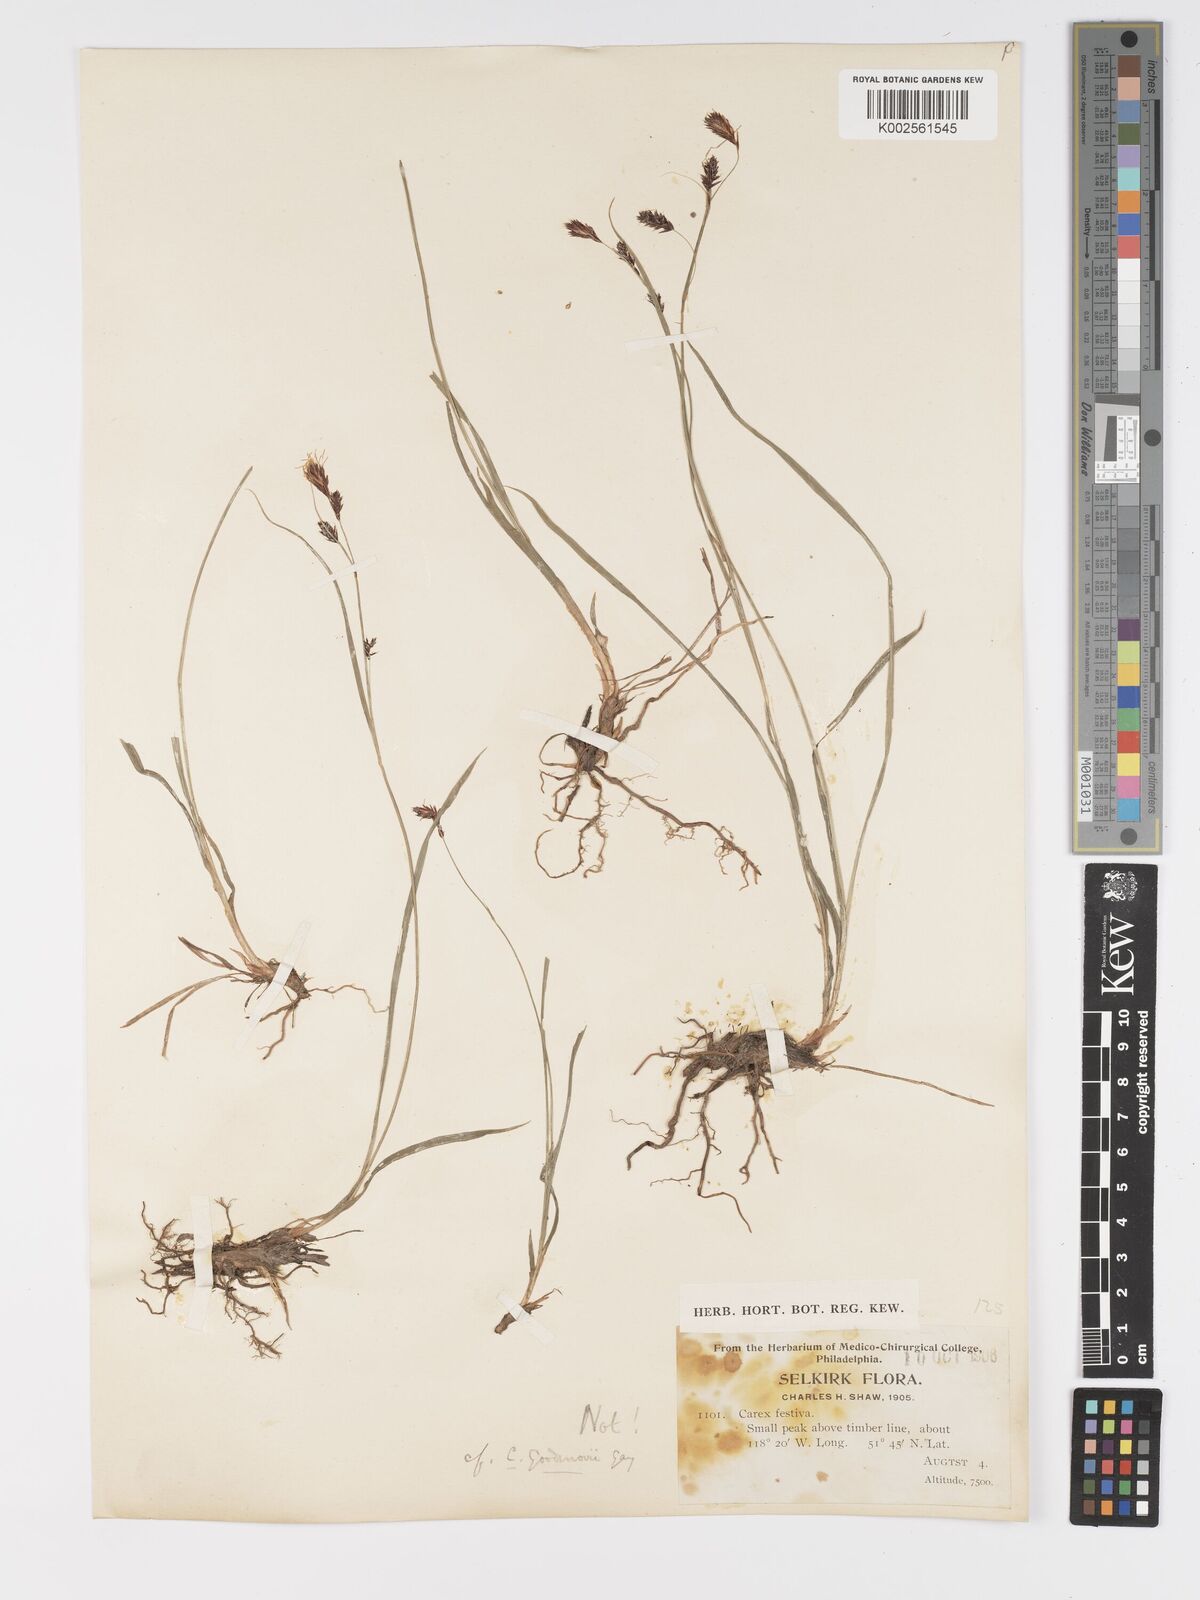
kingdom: Plantae
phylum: Tracheophyta
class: Liliopsida
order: Poales
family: Cyperaceae
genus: Carex
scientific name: Carex spectabilis
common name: Northwestern showy sedge
